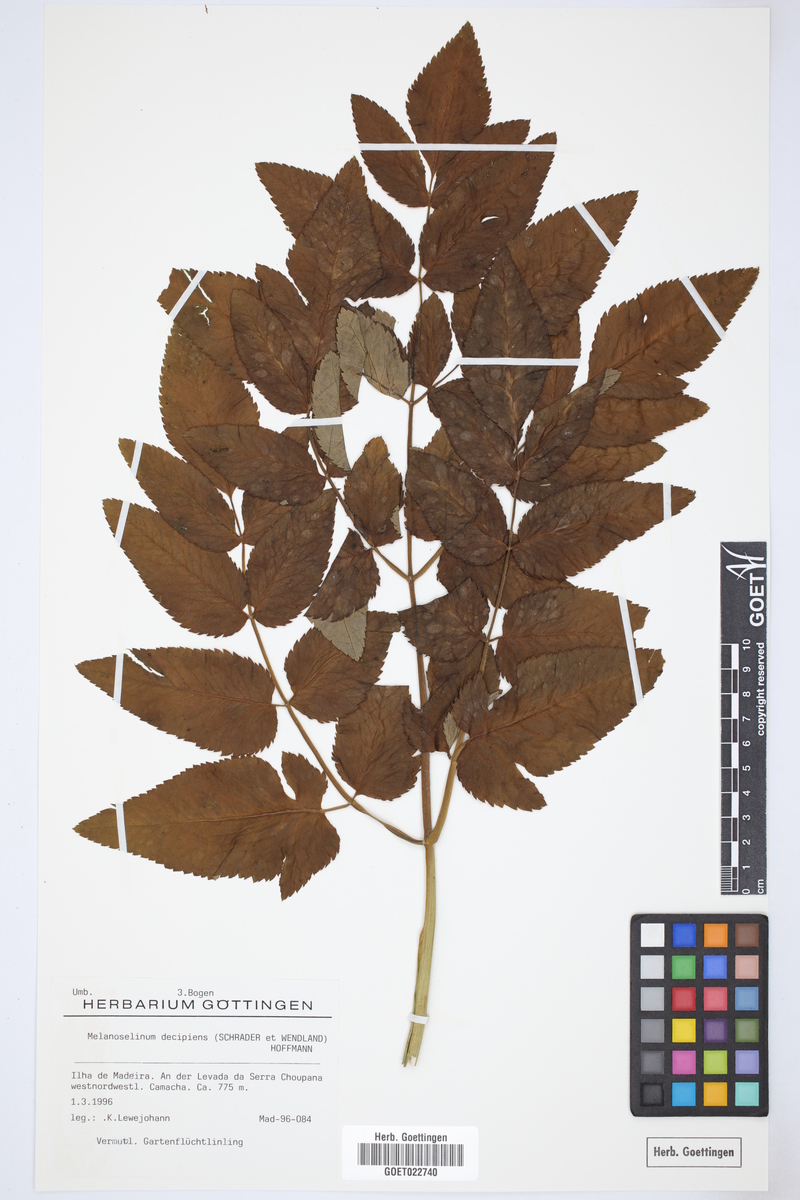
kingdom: Plantae
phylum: Tracheophyta
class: Magnoliopsida
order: Apiales
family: Apiaceae
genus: Daucus
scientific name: Daucus decipiens
